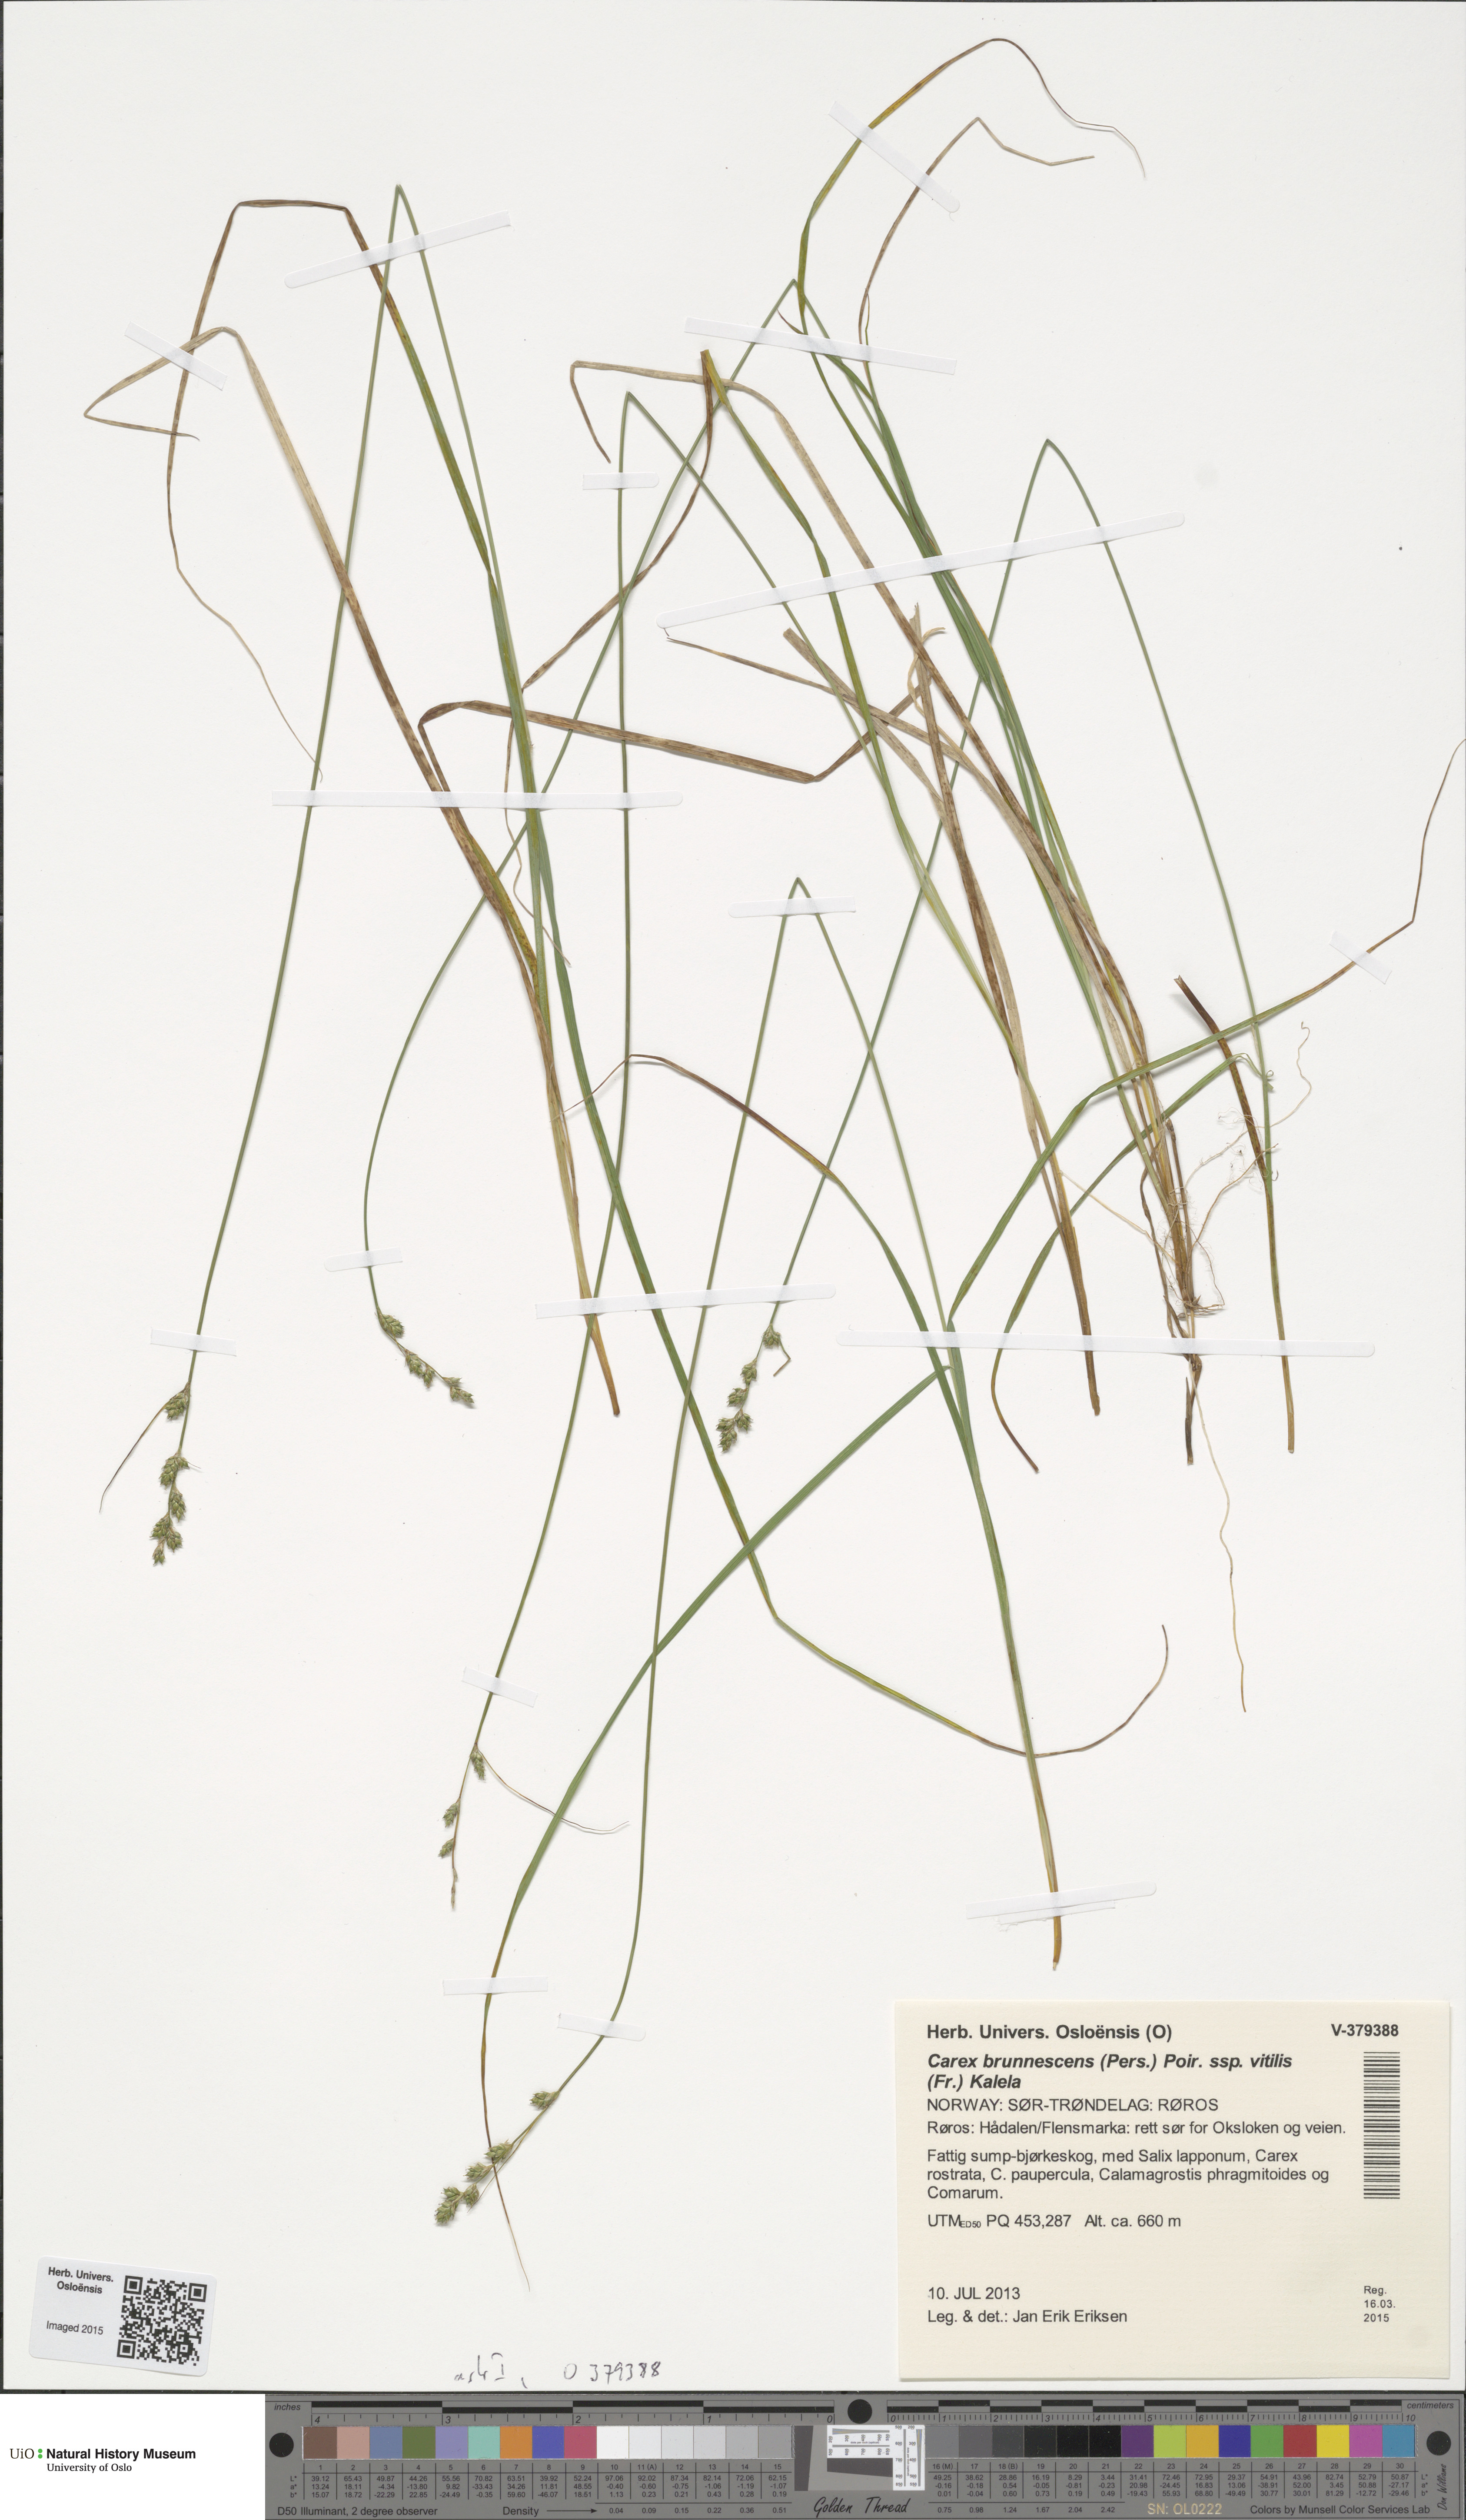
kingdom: Plantae
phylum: Tracheophyta
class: Liliopsida
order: Poales
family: Cyperaceae
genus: Carex
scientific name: Carex brunnescens
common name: Brown sedge
